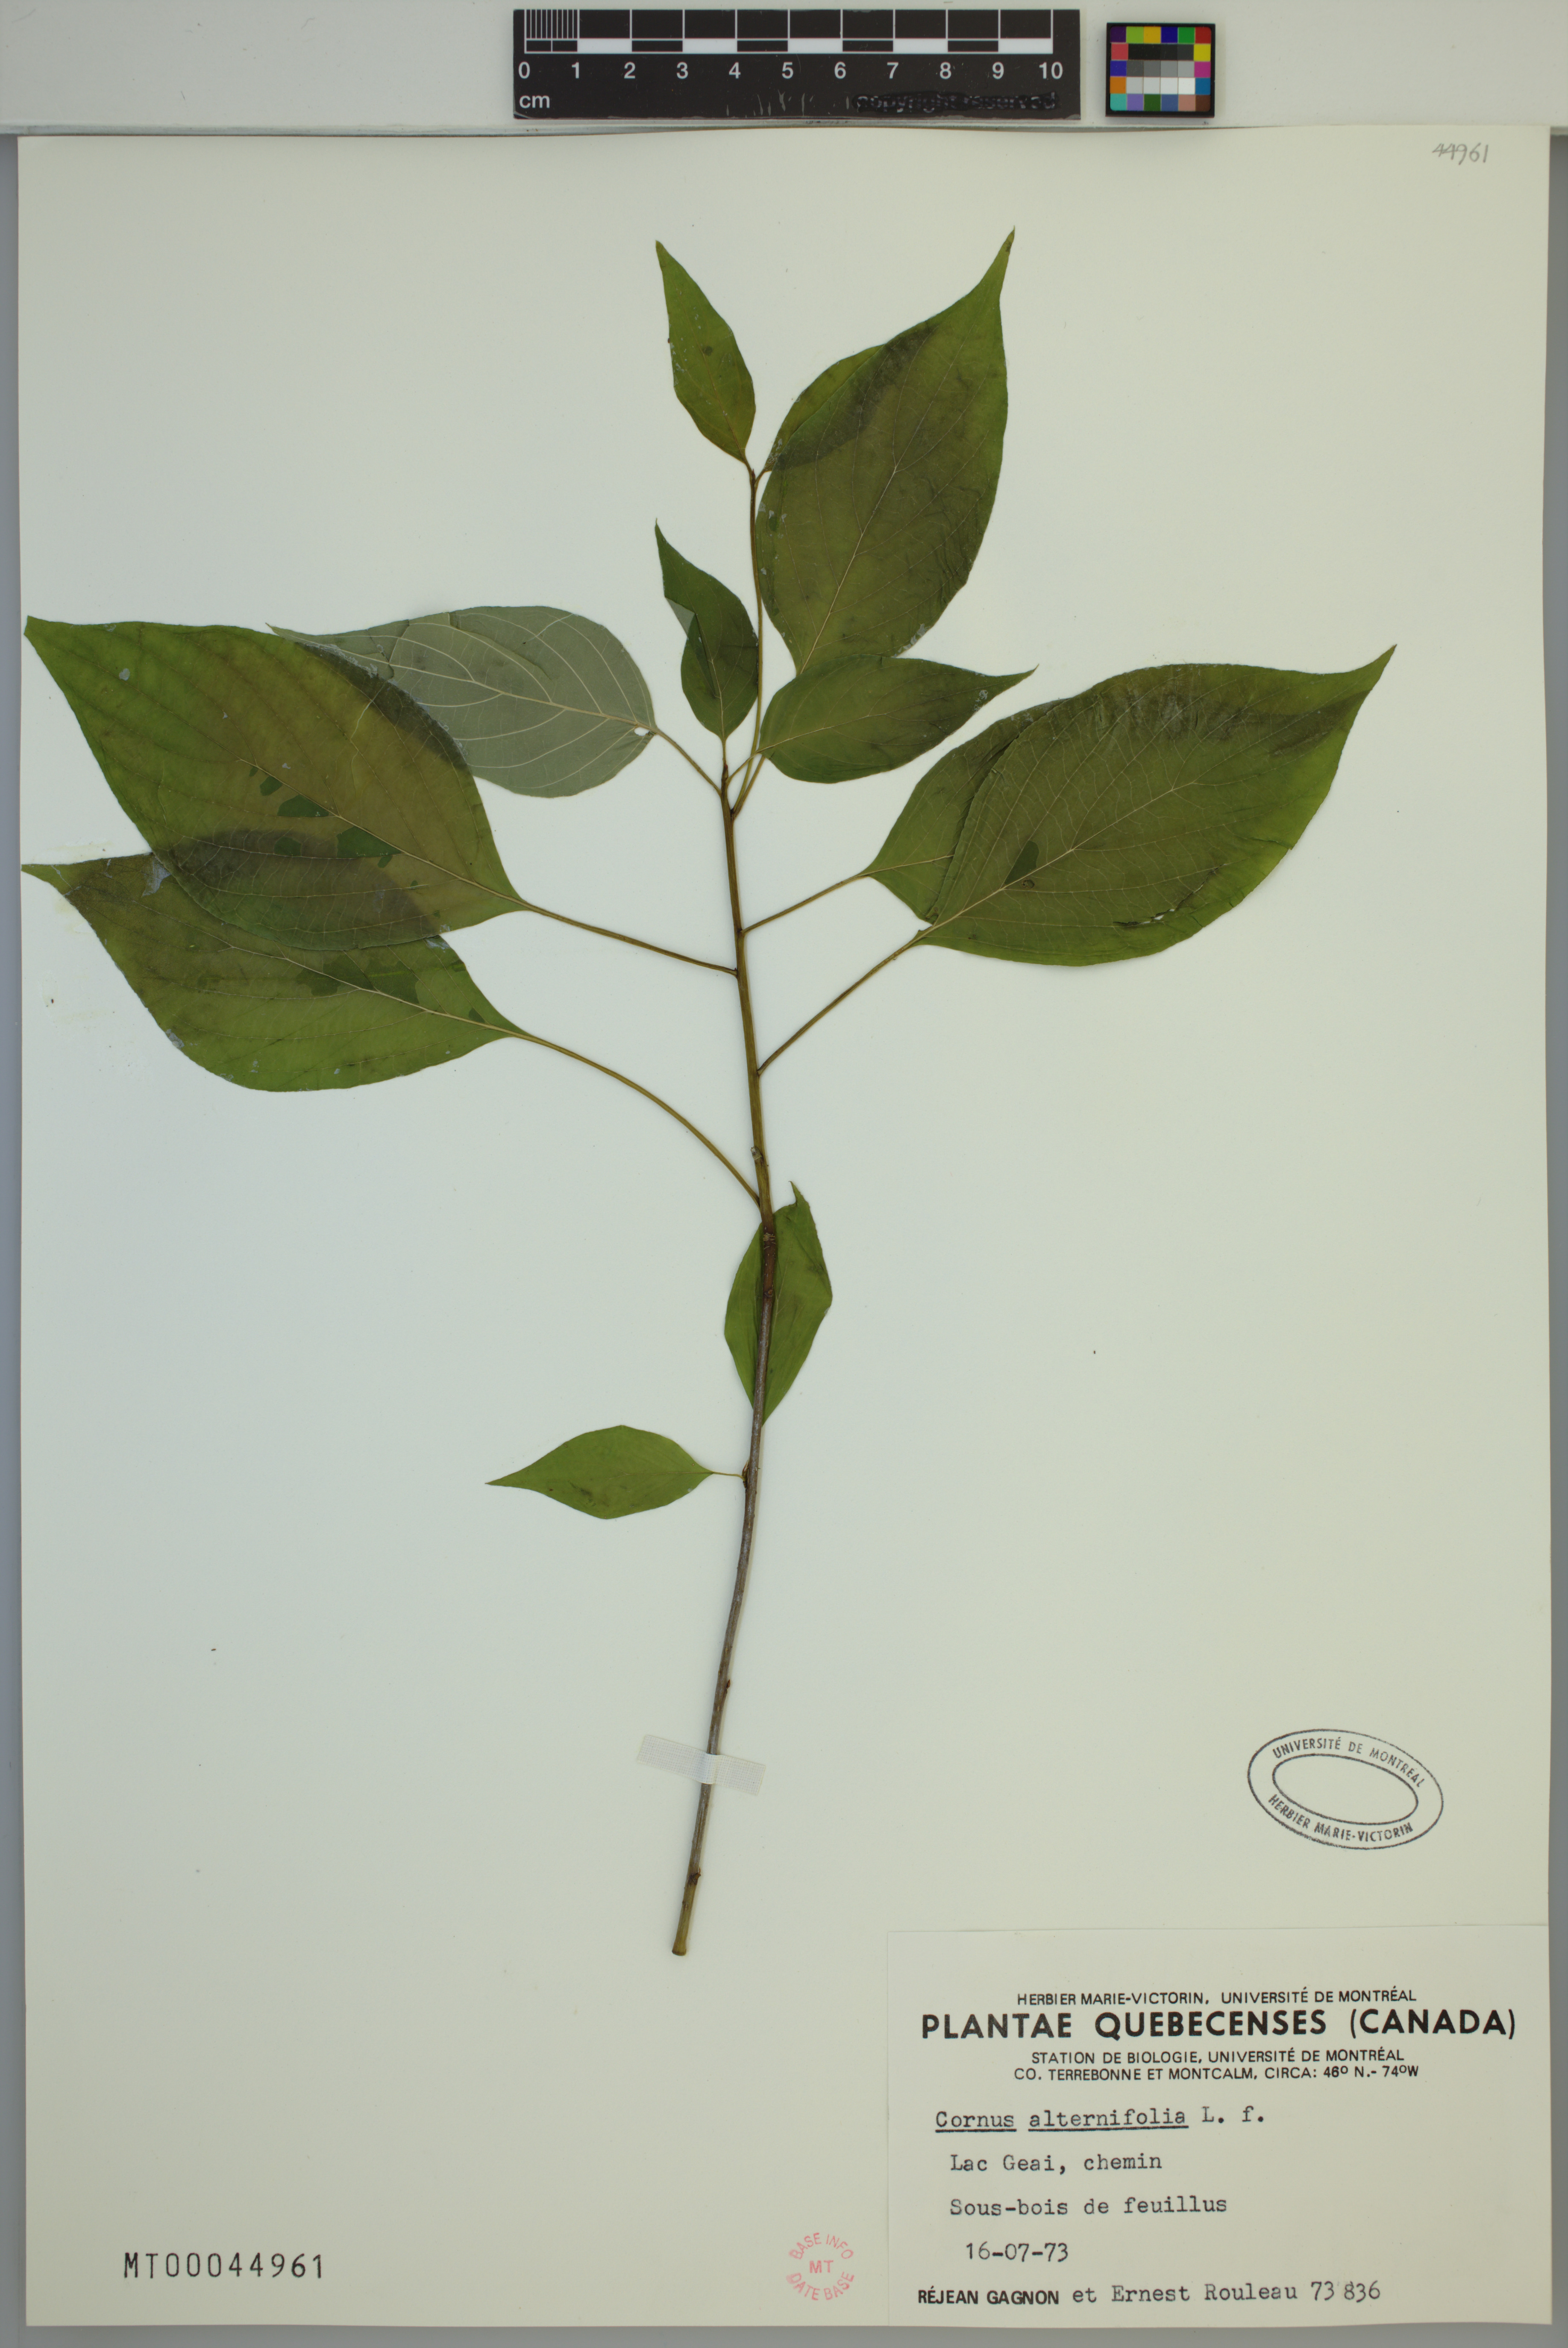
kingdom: Plantae
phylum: Tracheophyta
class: Magnoliopsida
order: Cornales
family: Cornaceae
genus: Cornus
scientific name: Cornus alternifolia
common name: Pagoda dogwood
